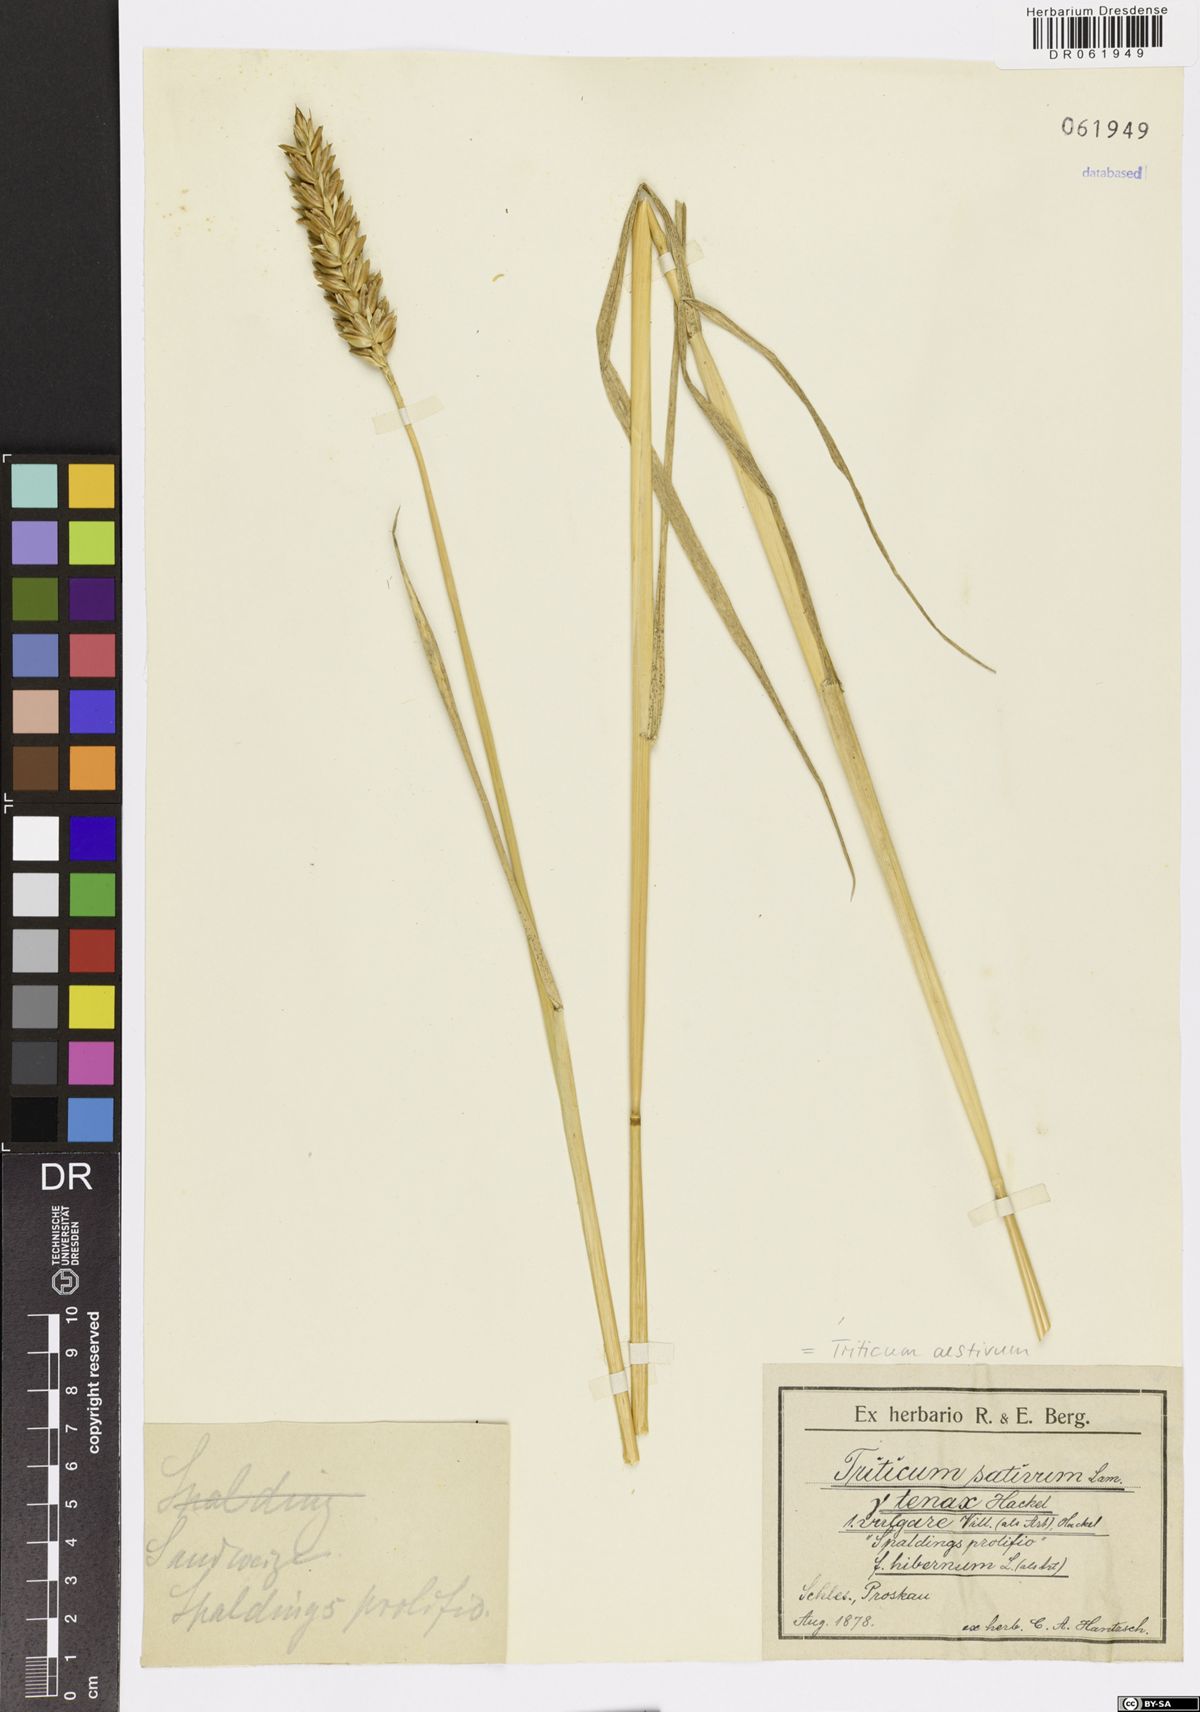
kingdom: Plantae
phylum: Tracheophyta
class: Liliopsida
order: Poales
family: Poaceae
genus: Triticum
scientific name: Triticum aestivum
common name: Common wheat
